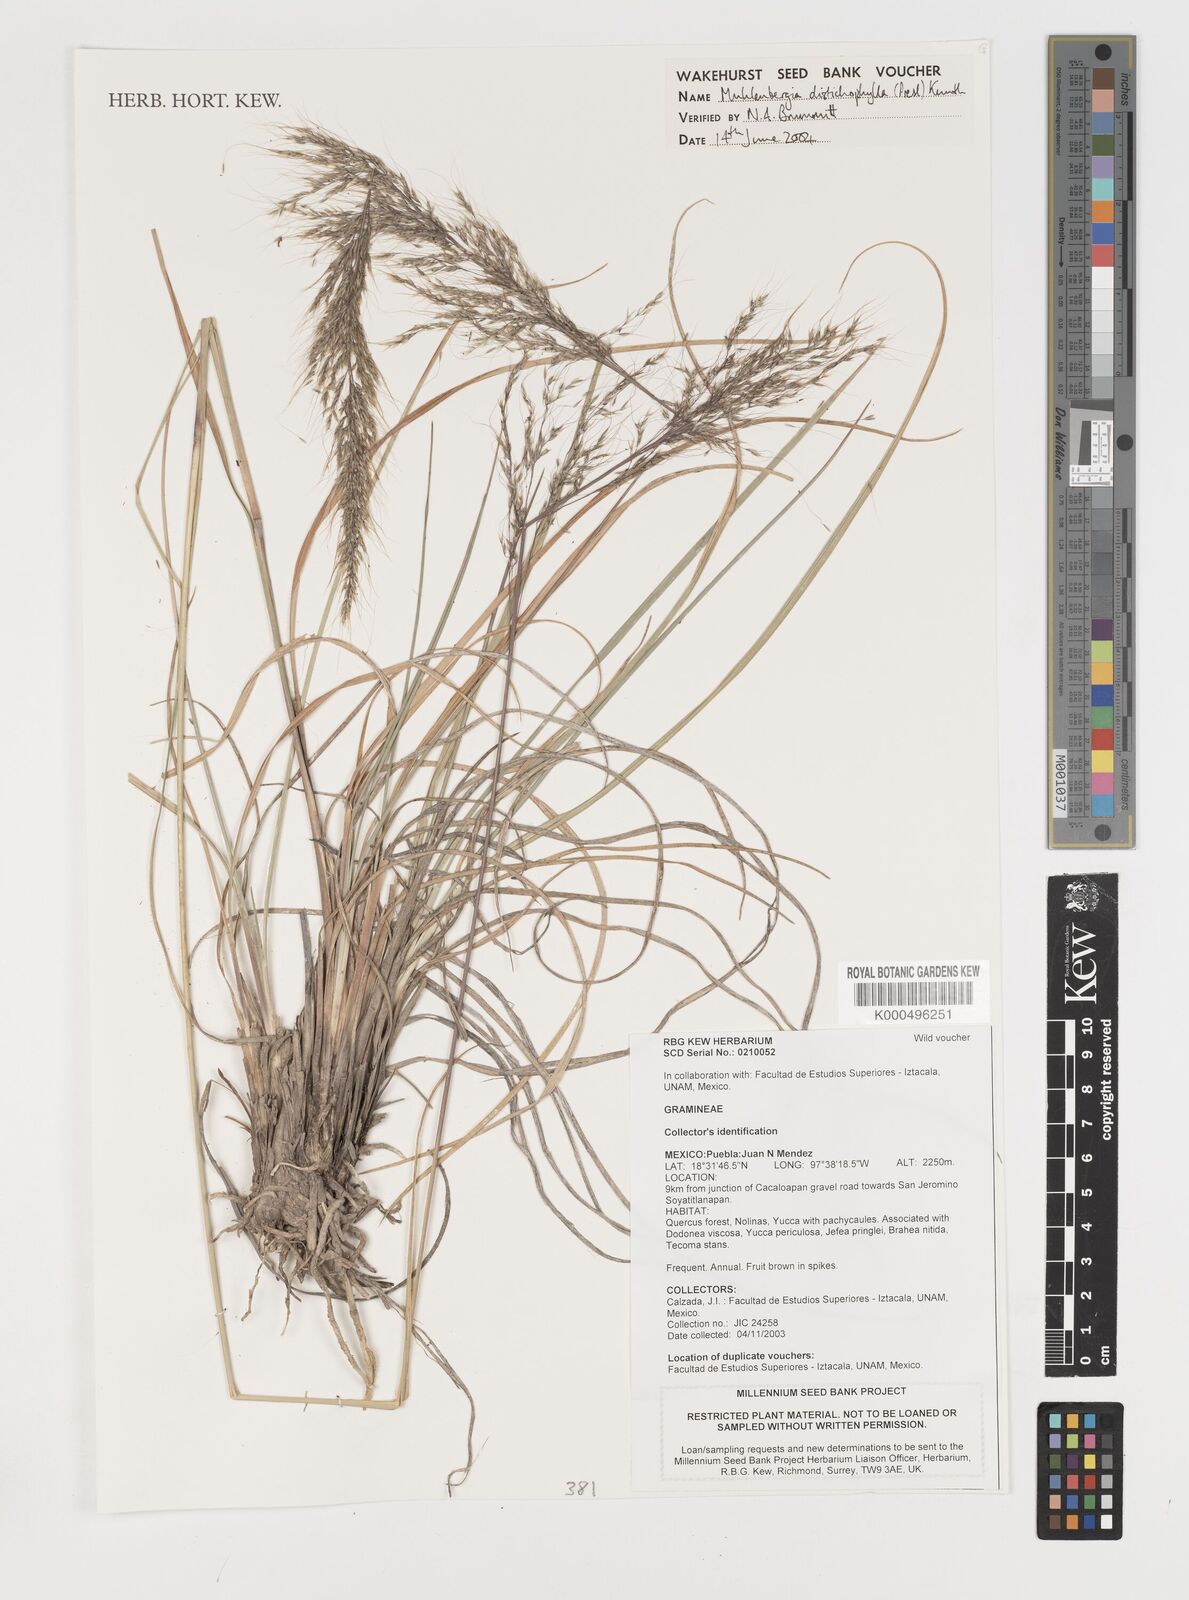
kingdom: Plantae
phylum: Tracheophyta
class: Liliopsida
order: Poales
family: Poaceae
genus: Muhlenbergia
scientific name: Muhlenbergia
